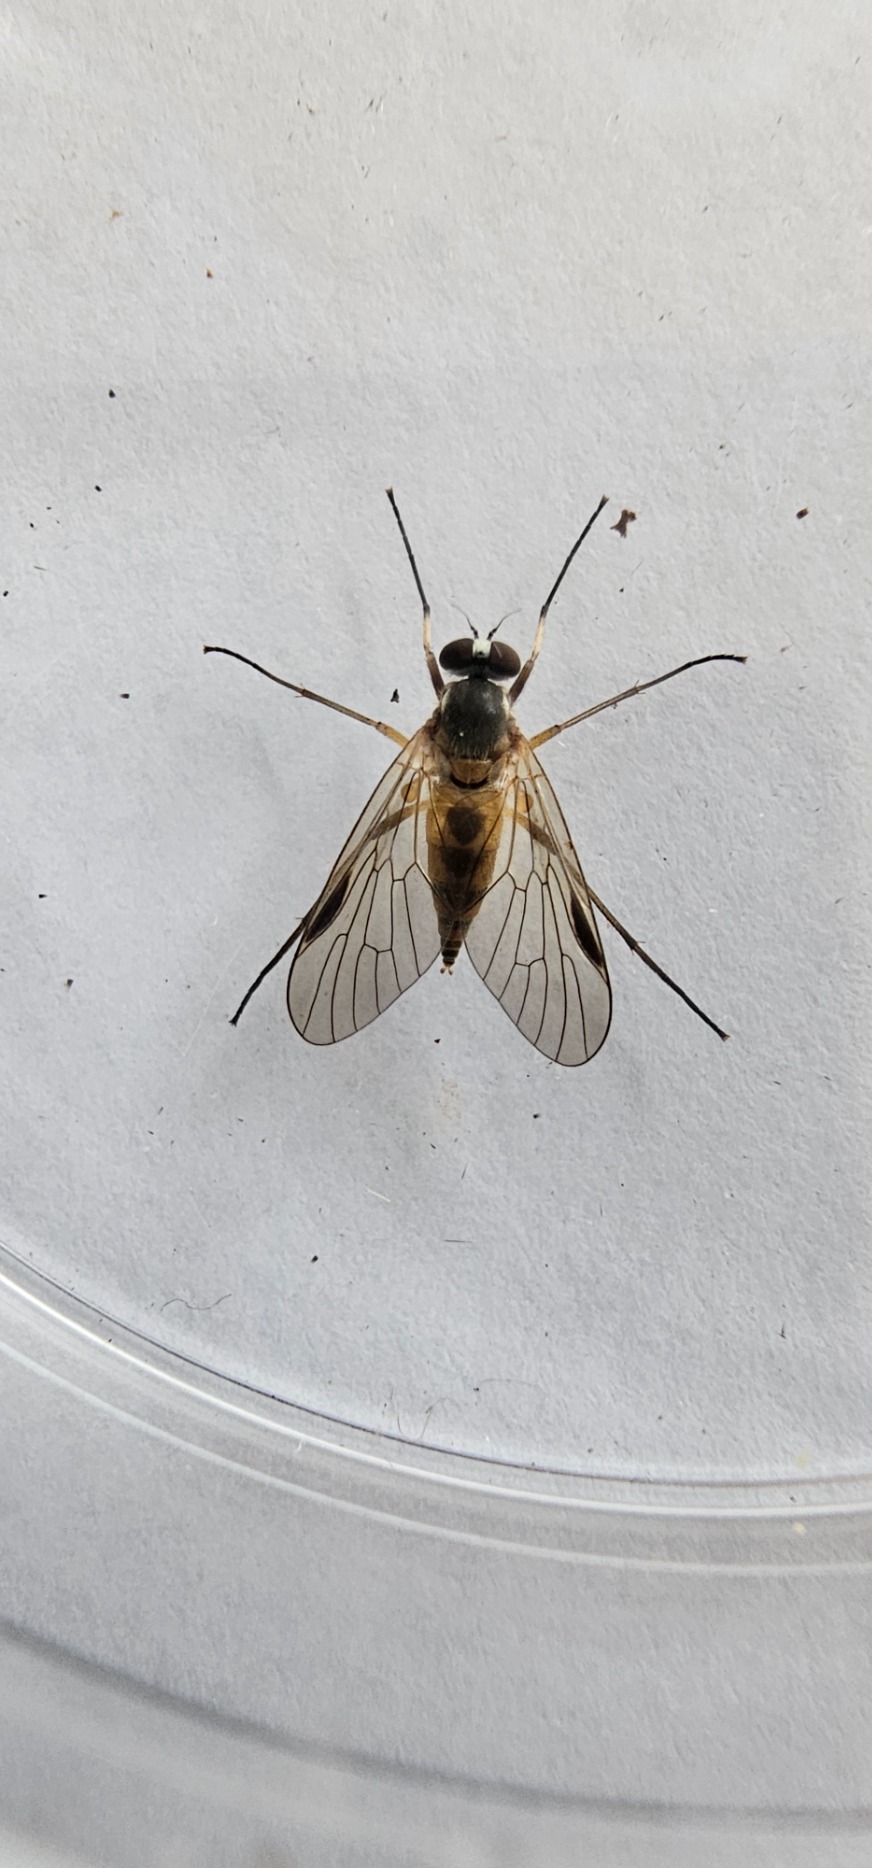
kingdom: Animalia
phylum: Arthropoda
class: Insecta
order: Diptera
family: Rhagionidae
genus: Rhagio
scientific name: Rhagio lineola
